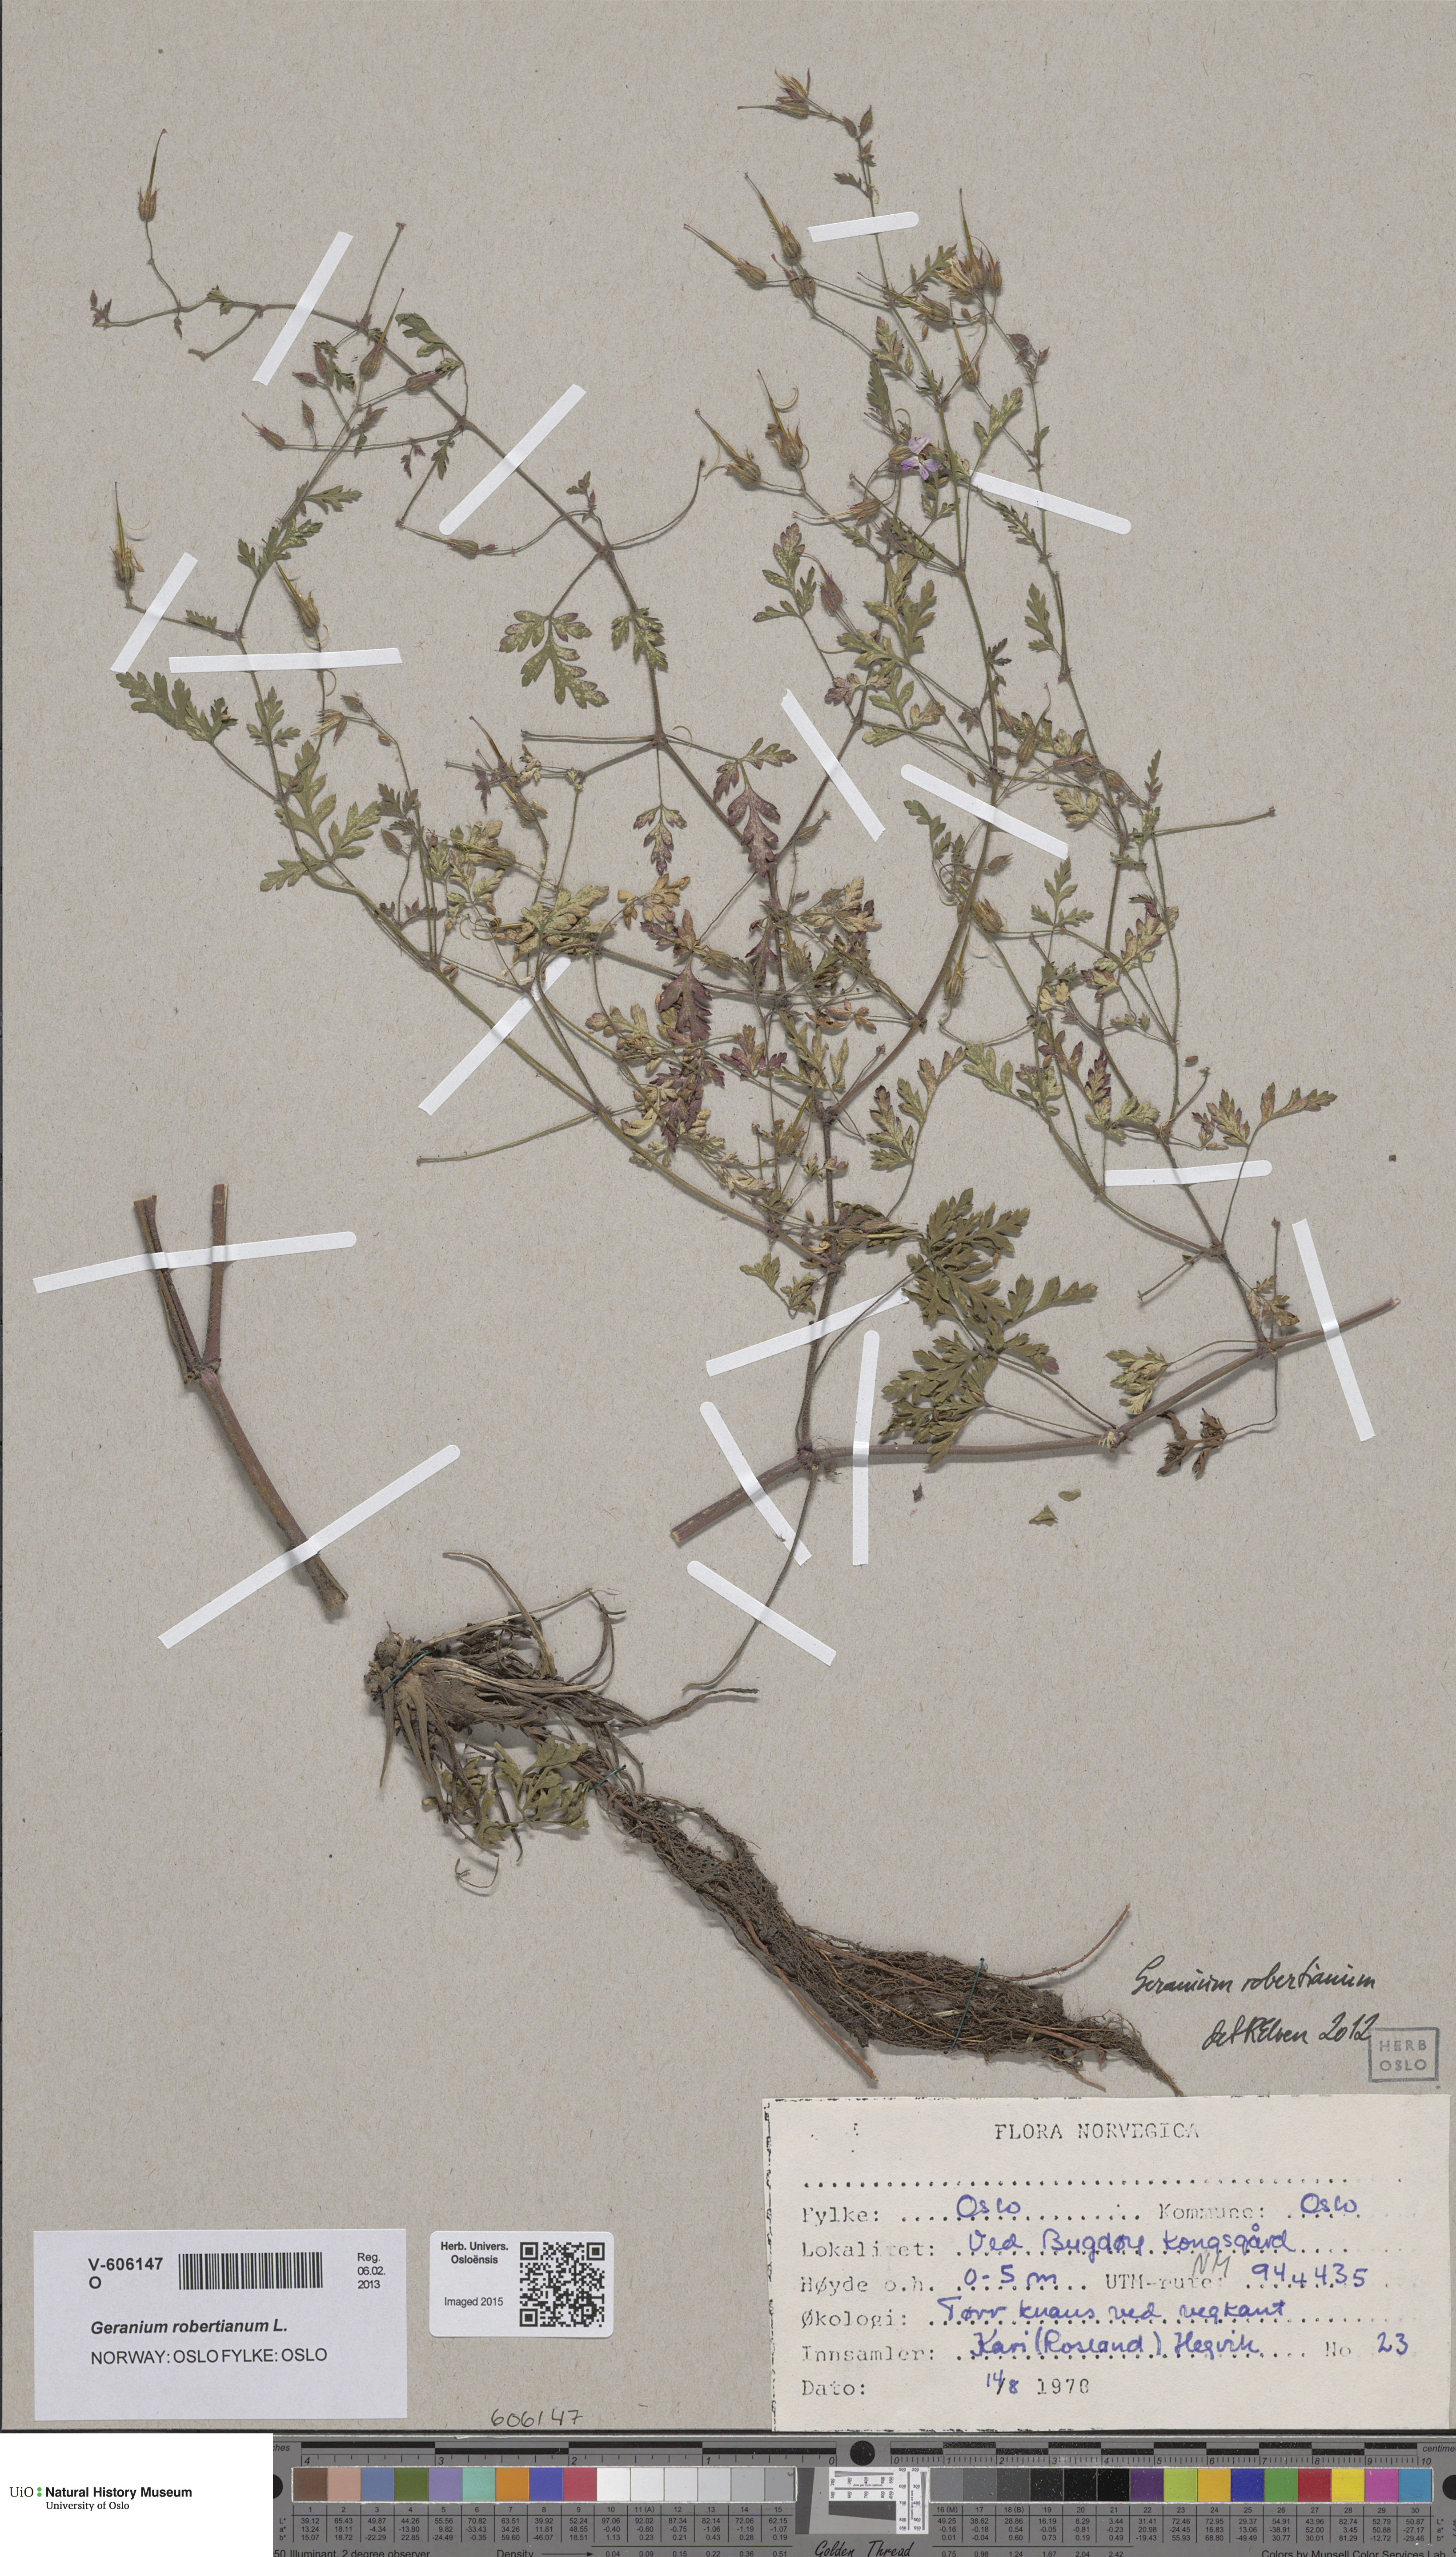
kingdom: Plantae
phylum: Tracheophyta
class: Magnoliopsida
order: Geraniales
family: Geraniaceae
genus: Geranium
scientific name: Geranium robertianum
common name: Herb-robert
